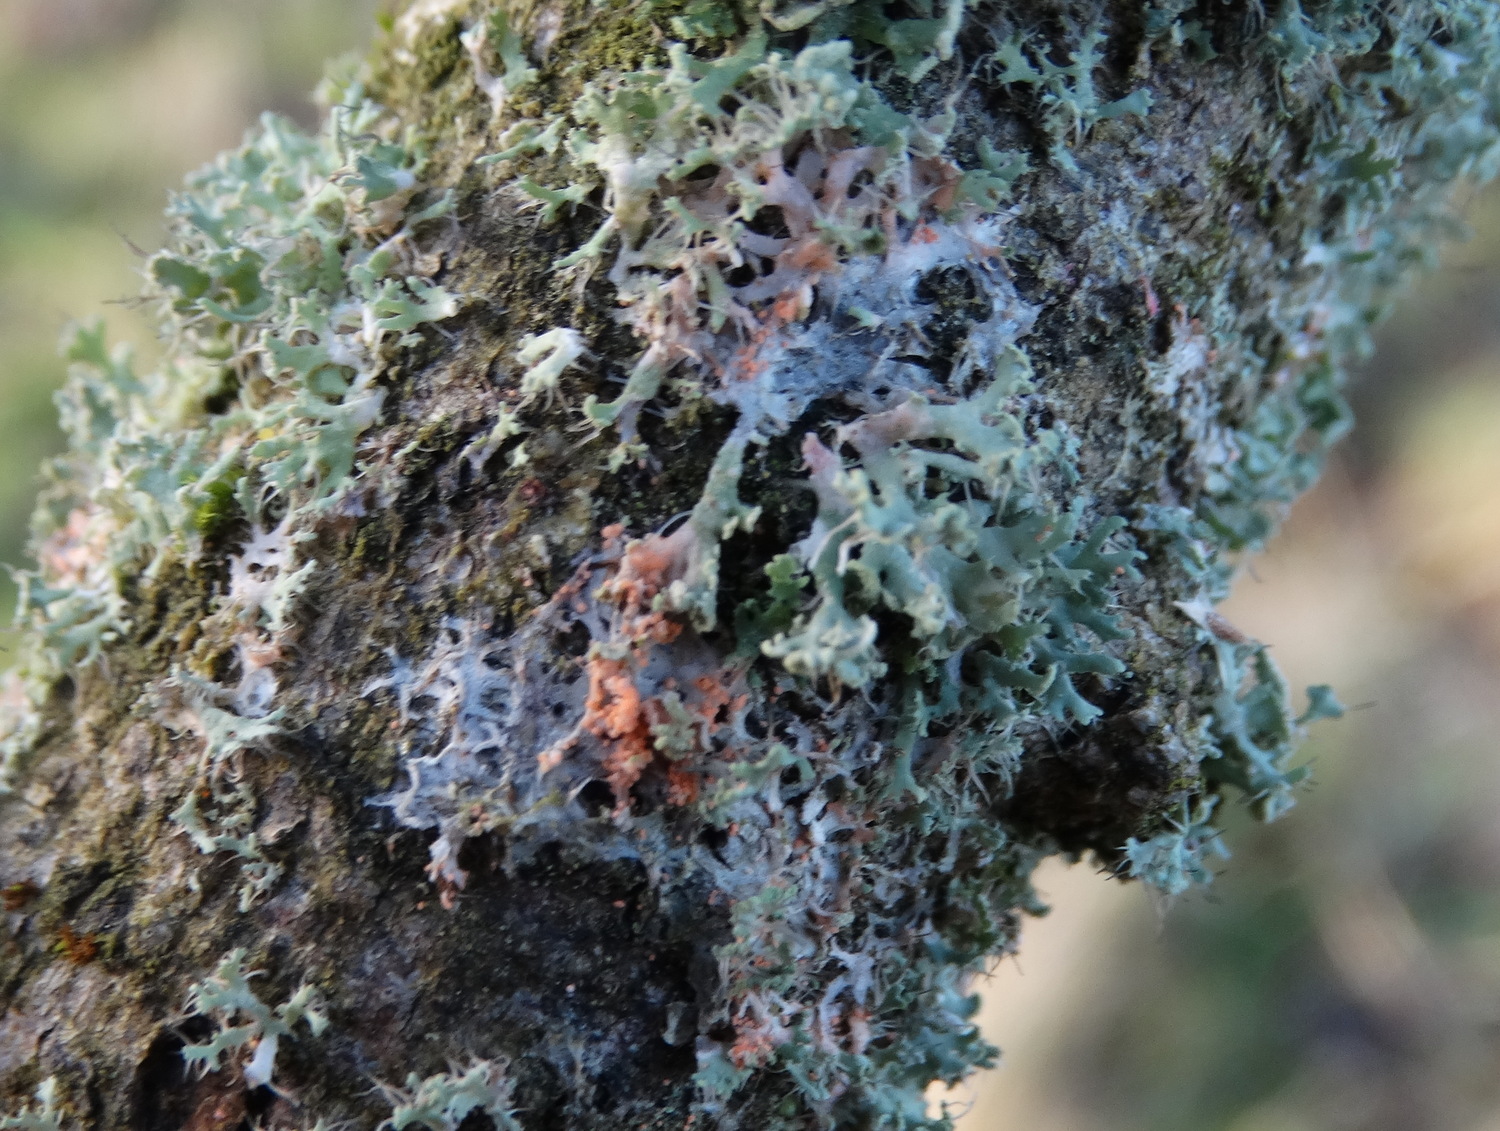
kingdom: Fungi
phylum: Basidiomycota
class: Agaricomycetes
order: Corticiales
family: Corticiaceae
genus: Erythricium
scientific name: Erythricium aurantiacum
